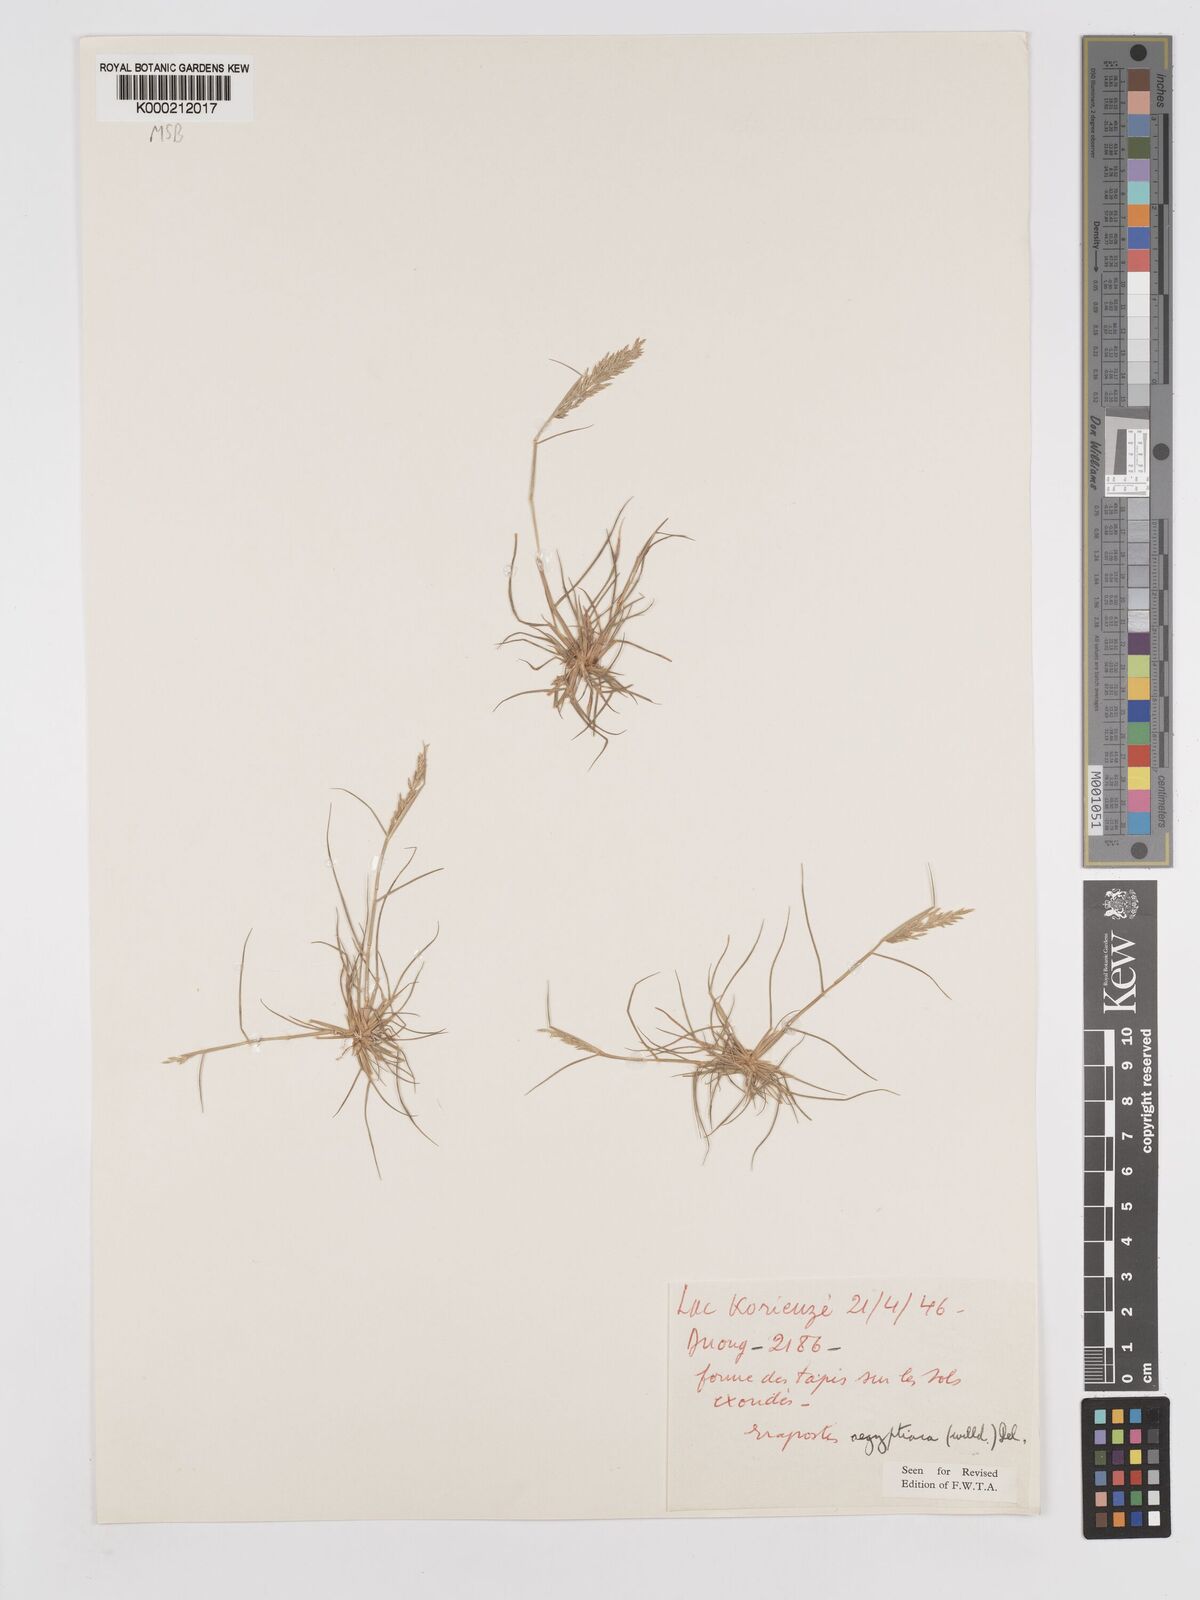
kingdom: Plantae
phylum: Tracheophyta
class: Liliopsida
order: Poales
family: Poaceae
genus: Eragrostis
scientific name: Eragrostis aegyptiaca
